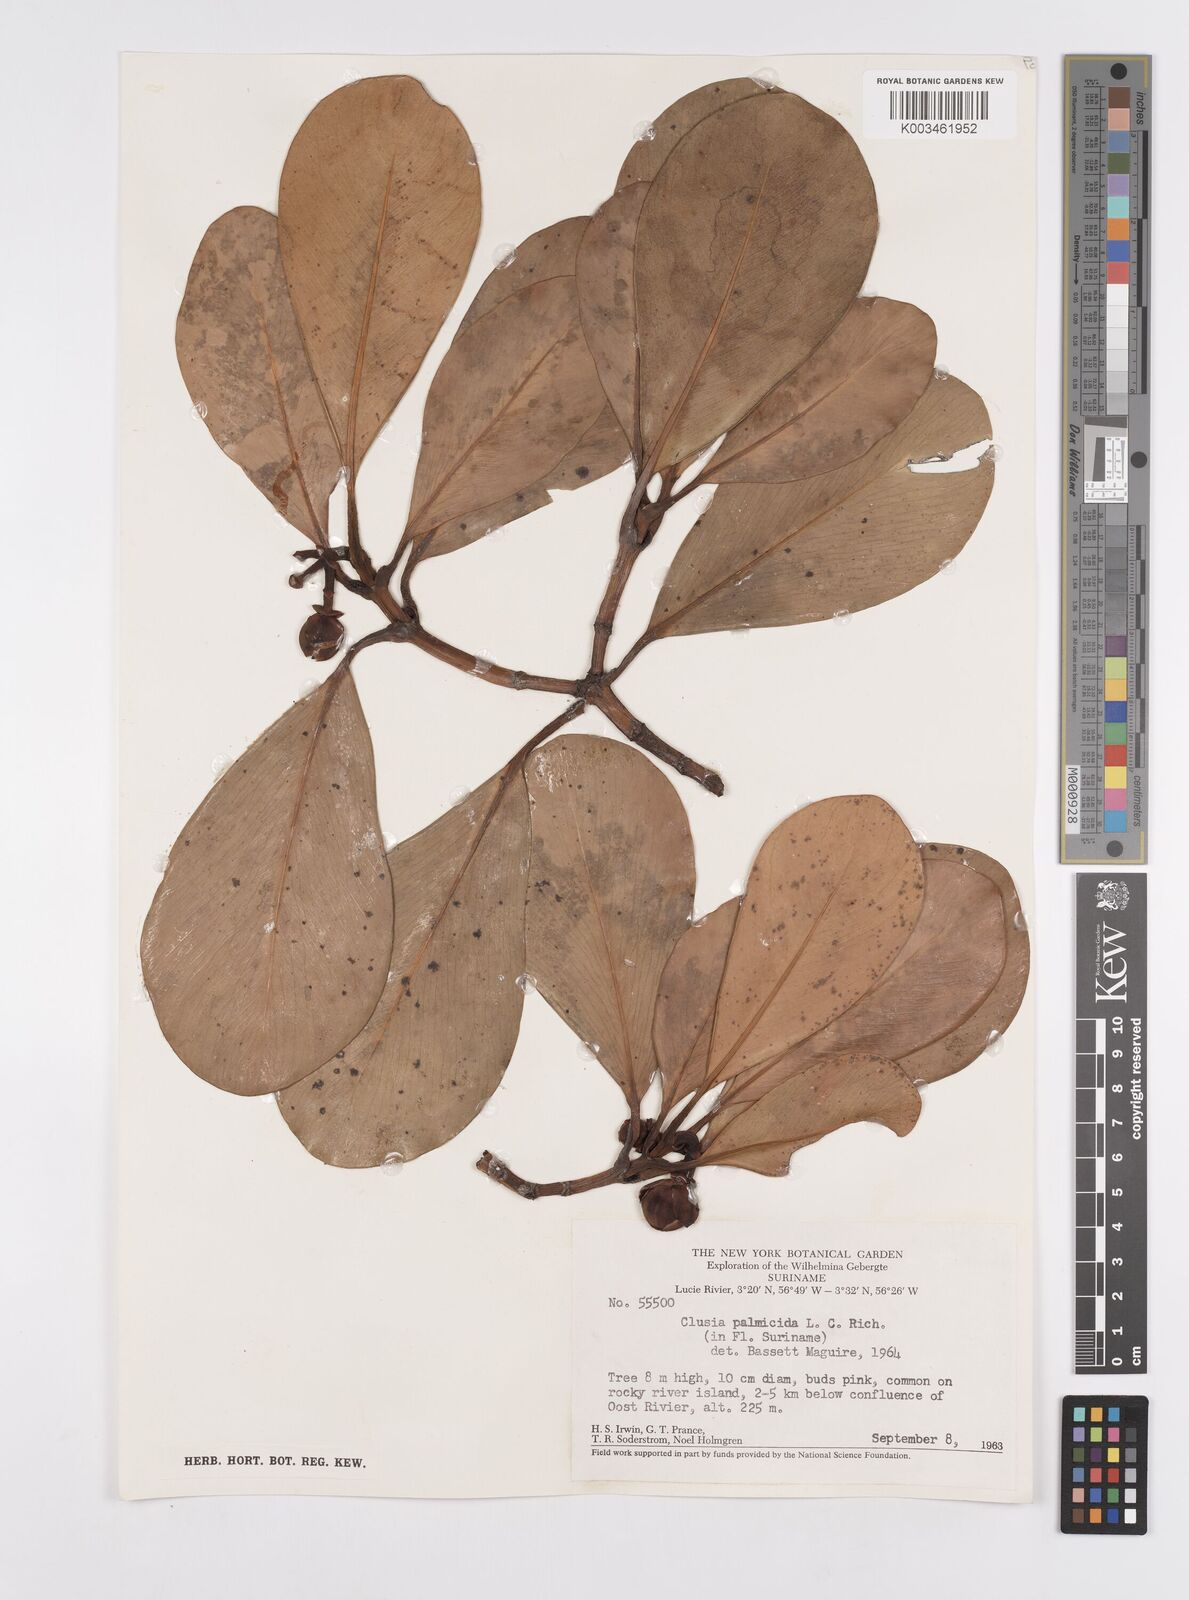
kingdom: Plantae
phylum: Tracheophyta
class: Magnoliopsida
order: Malpighiales
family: Clusiaceae
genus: Clusia
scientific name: Clusia palmicida
